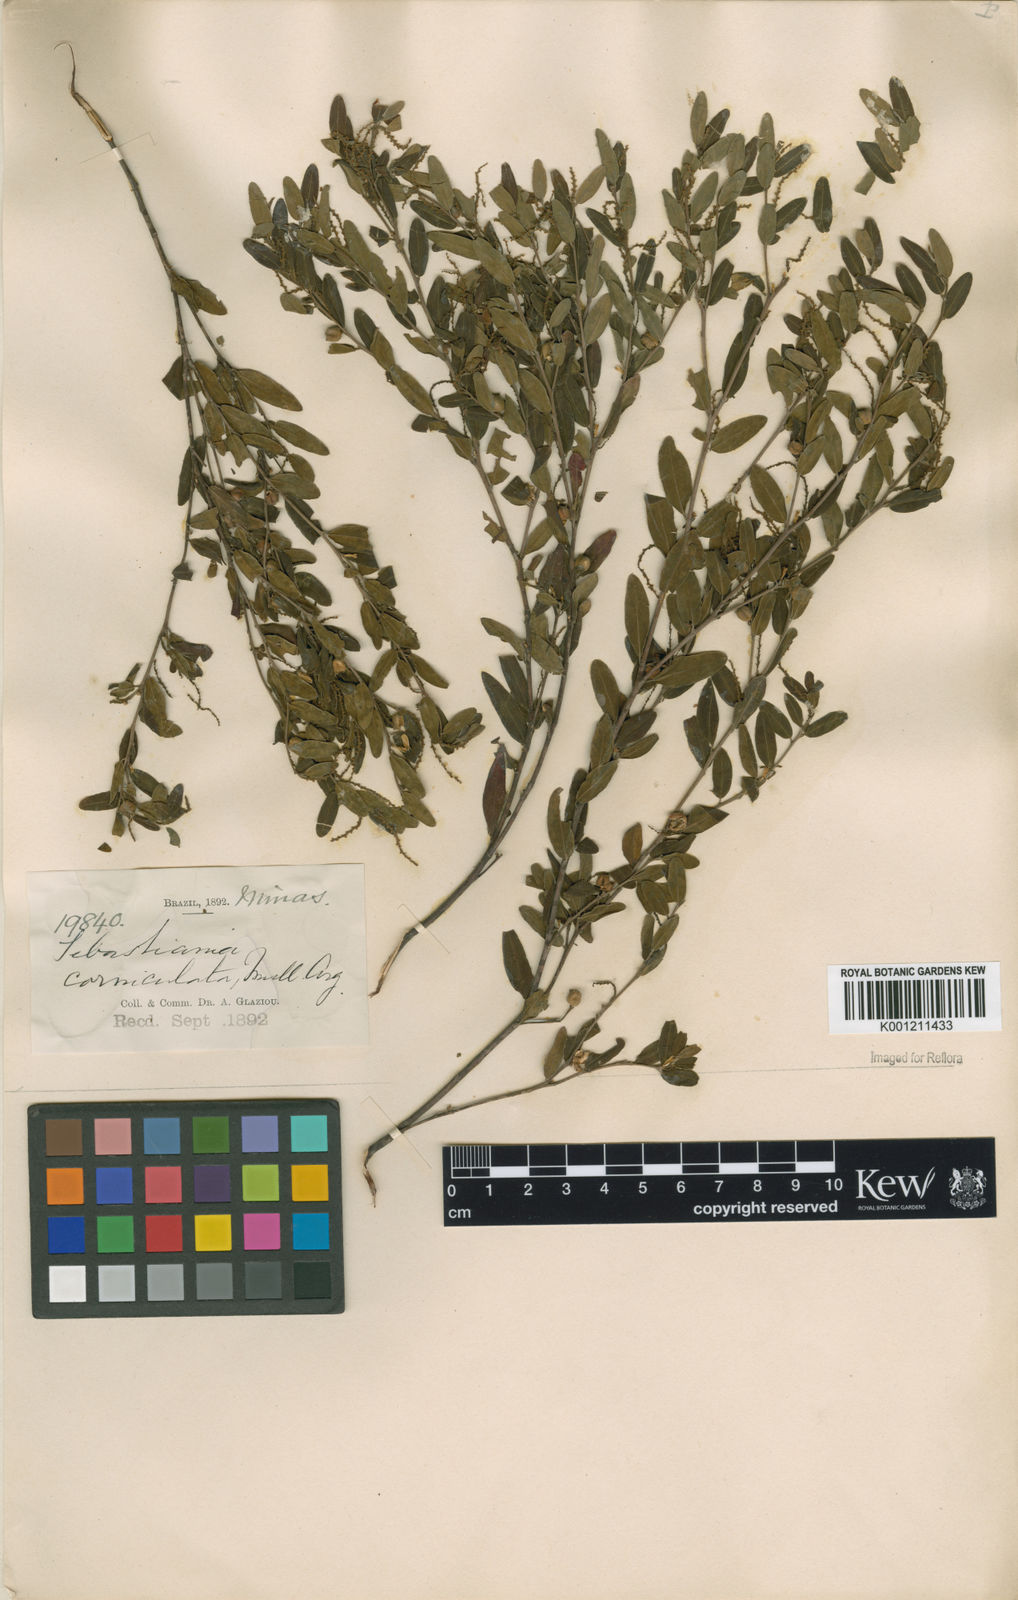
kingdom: Plantae
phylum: Tracheophyta
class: Magnoliopsida
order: Malpighiales
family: Euphorbiaceae
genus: Microstachys
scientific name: Microstachys
